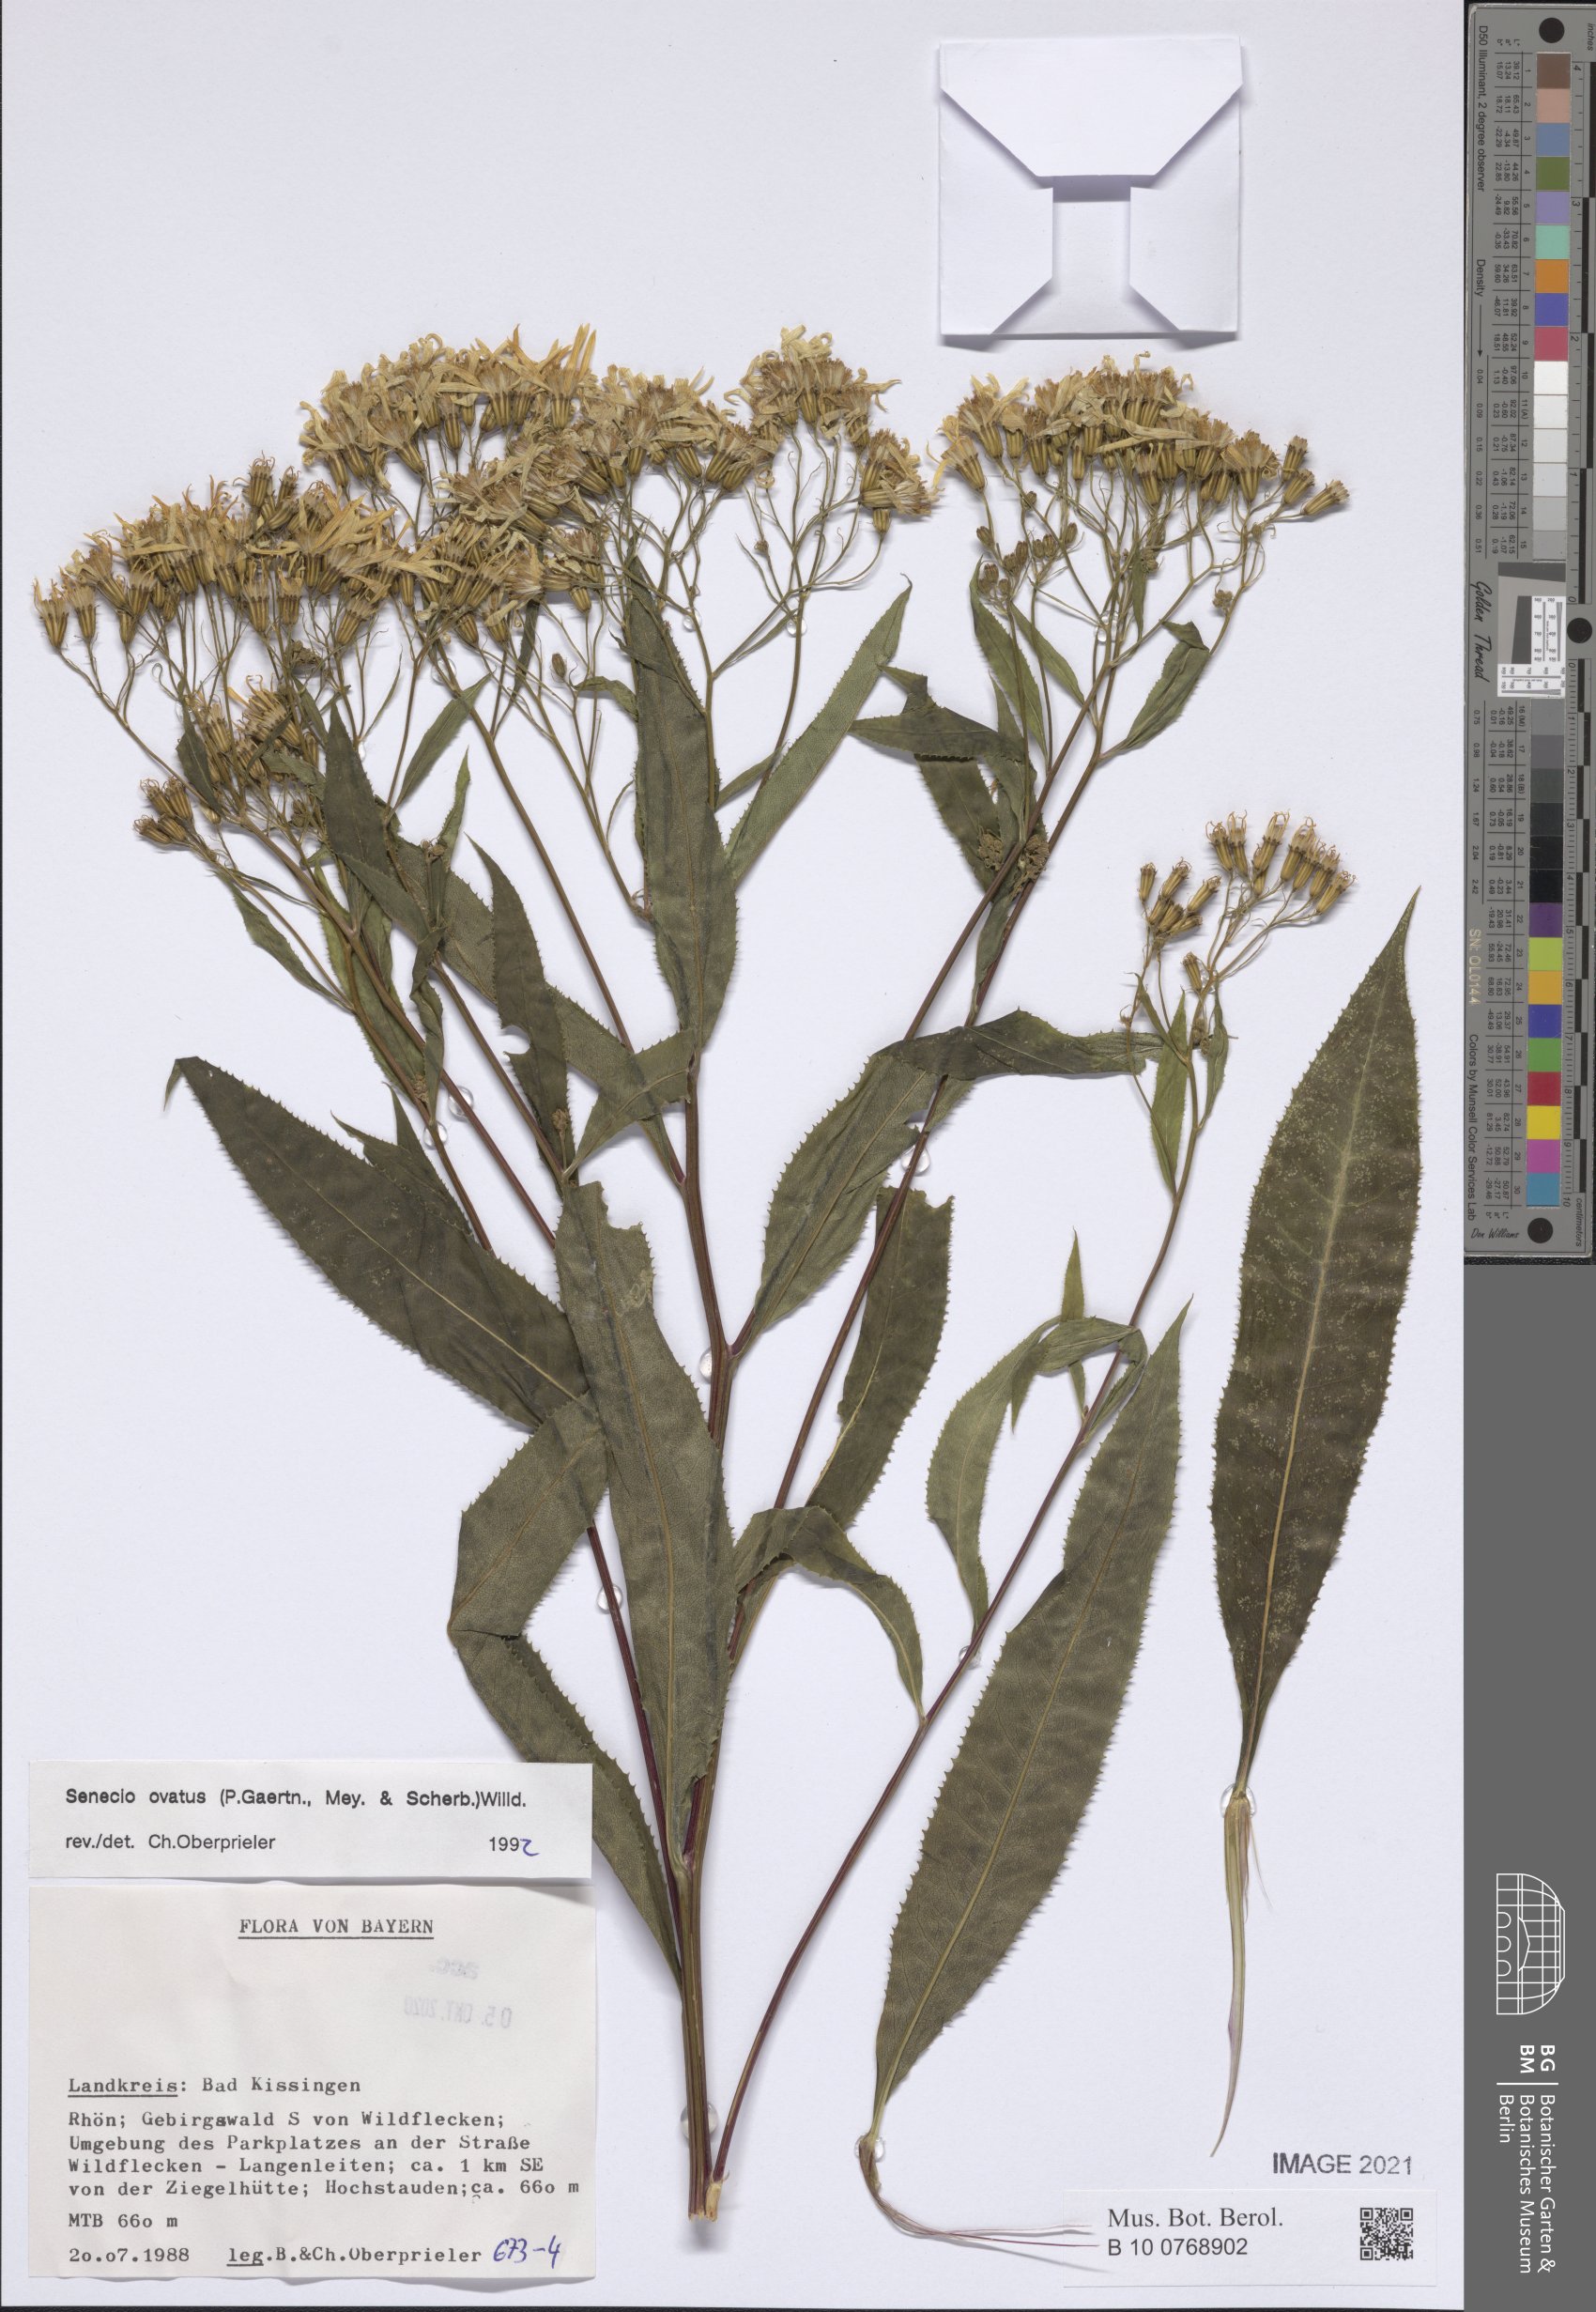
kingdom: Plantae
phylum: Tracheophyta
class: Magnoliopsida
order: Asterales
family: Asteraceae
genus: Senecio
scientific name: Senecio ovatus
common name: Wood ragwort
